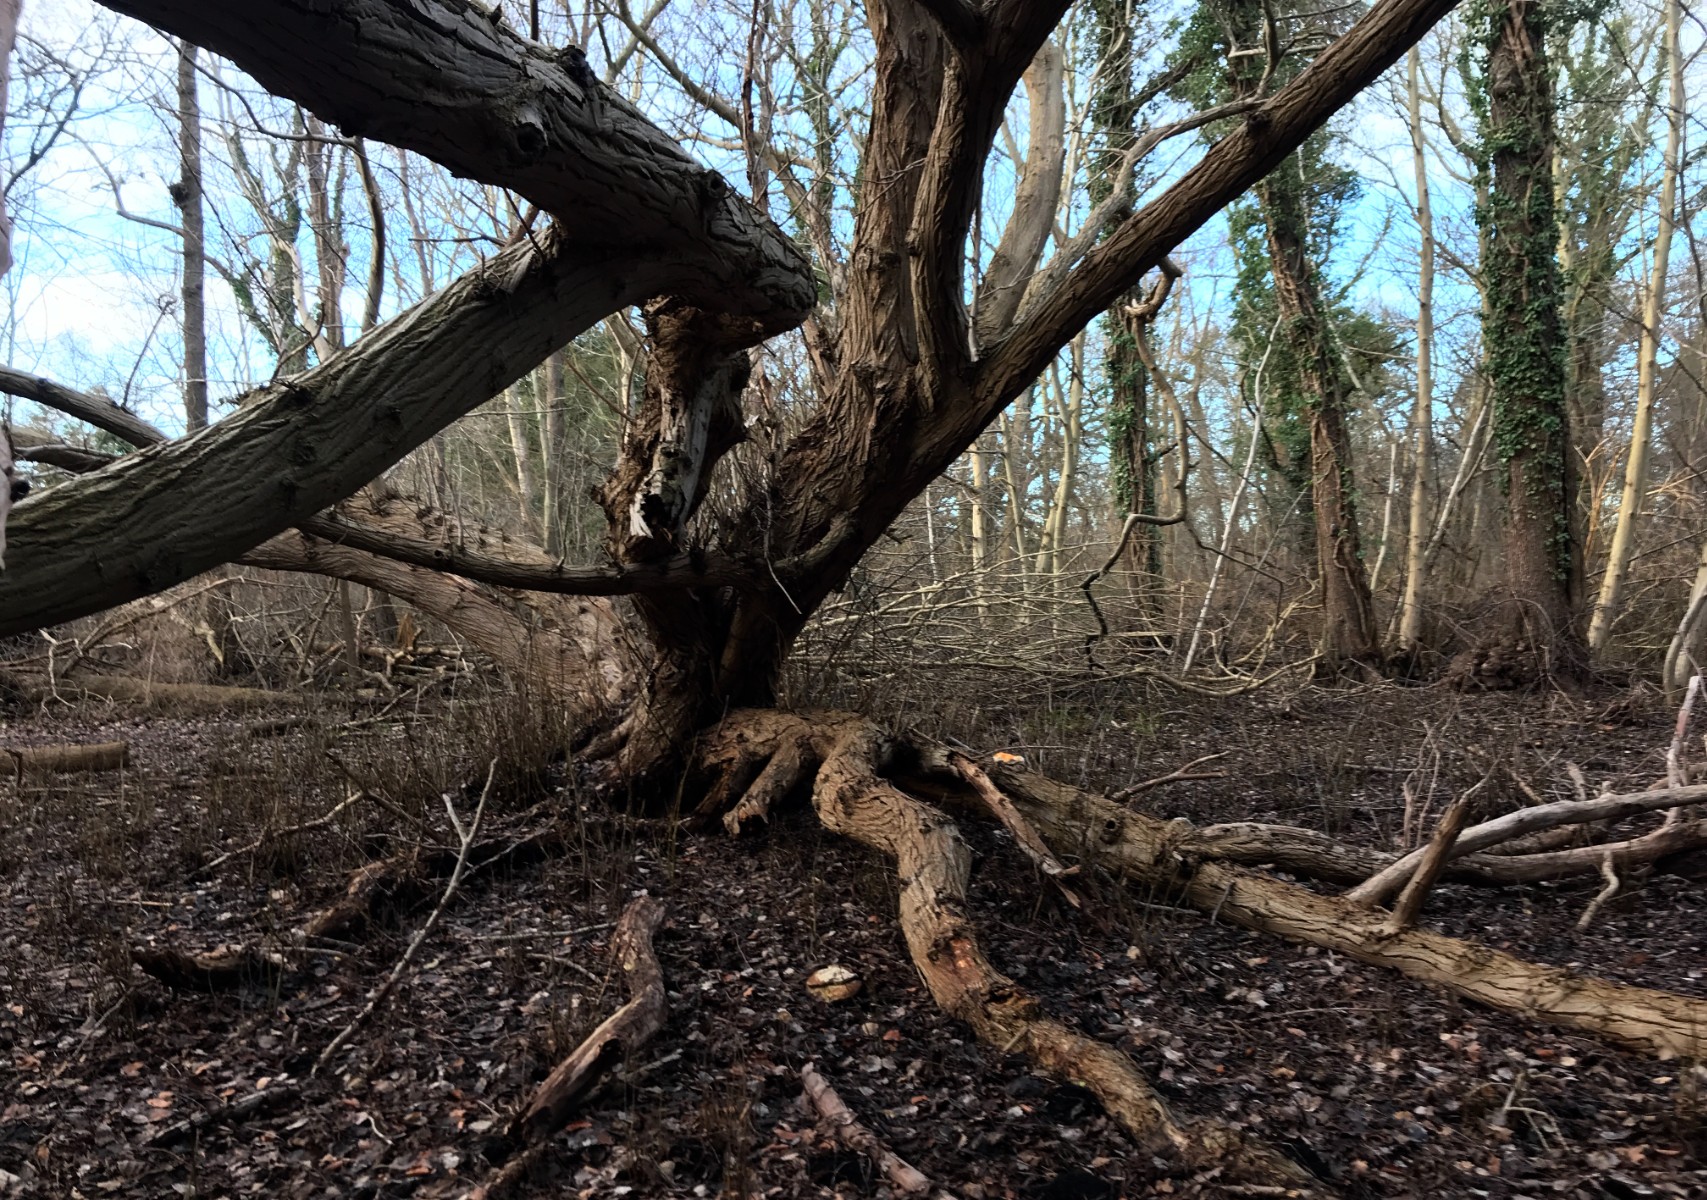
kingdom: Fungi
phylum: Basidiomycota
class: Agaricomycetes
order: Polyporales
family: Fomitopsidaceae
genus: Fomitopsis
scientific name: Fomitopsis pinicola
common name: randbæltet hovporesvamp
